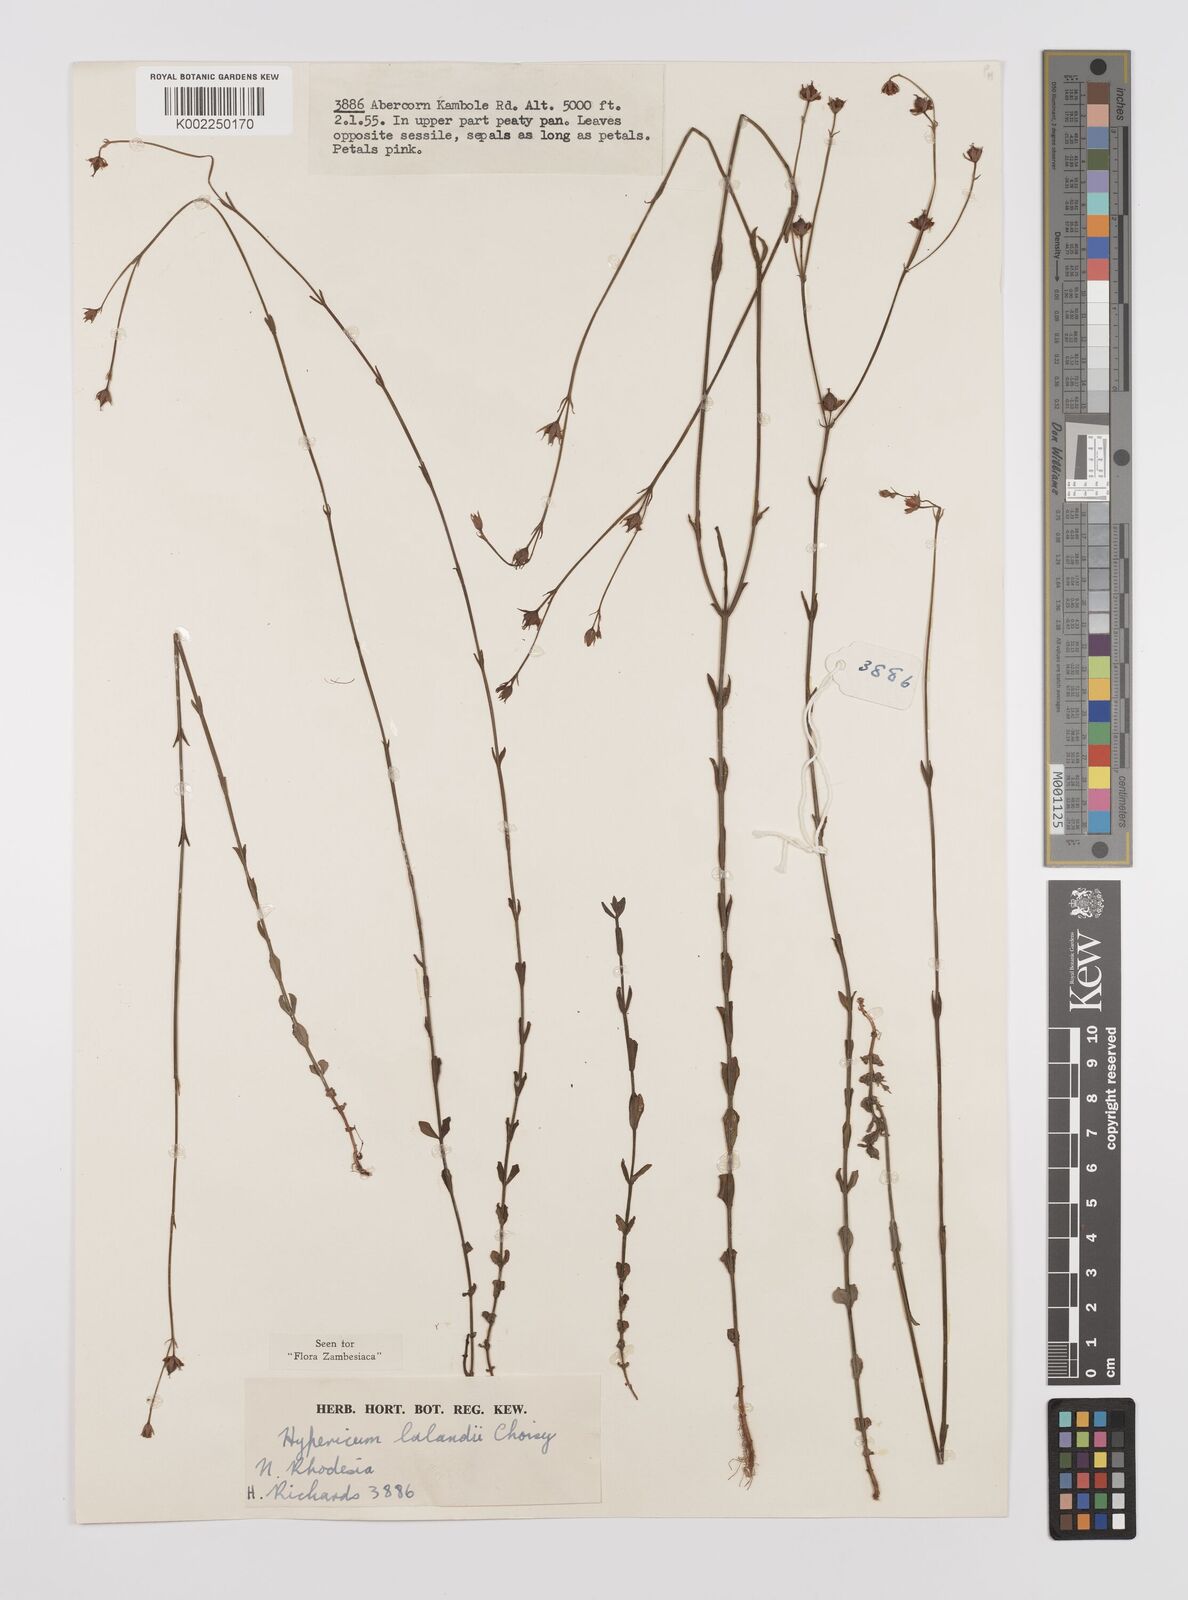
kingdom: Plantae
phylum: Tracheophyta
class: Magnoliopsida
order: Malpighiales
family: Hypericaceae
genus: Hypericum
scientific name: Hypericum lalandii
